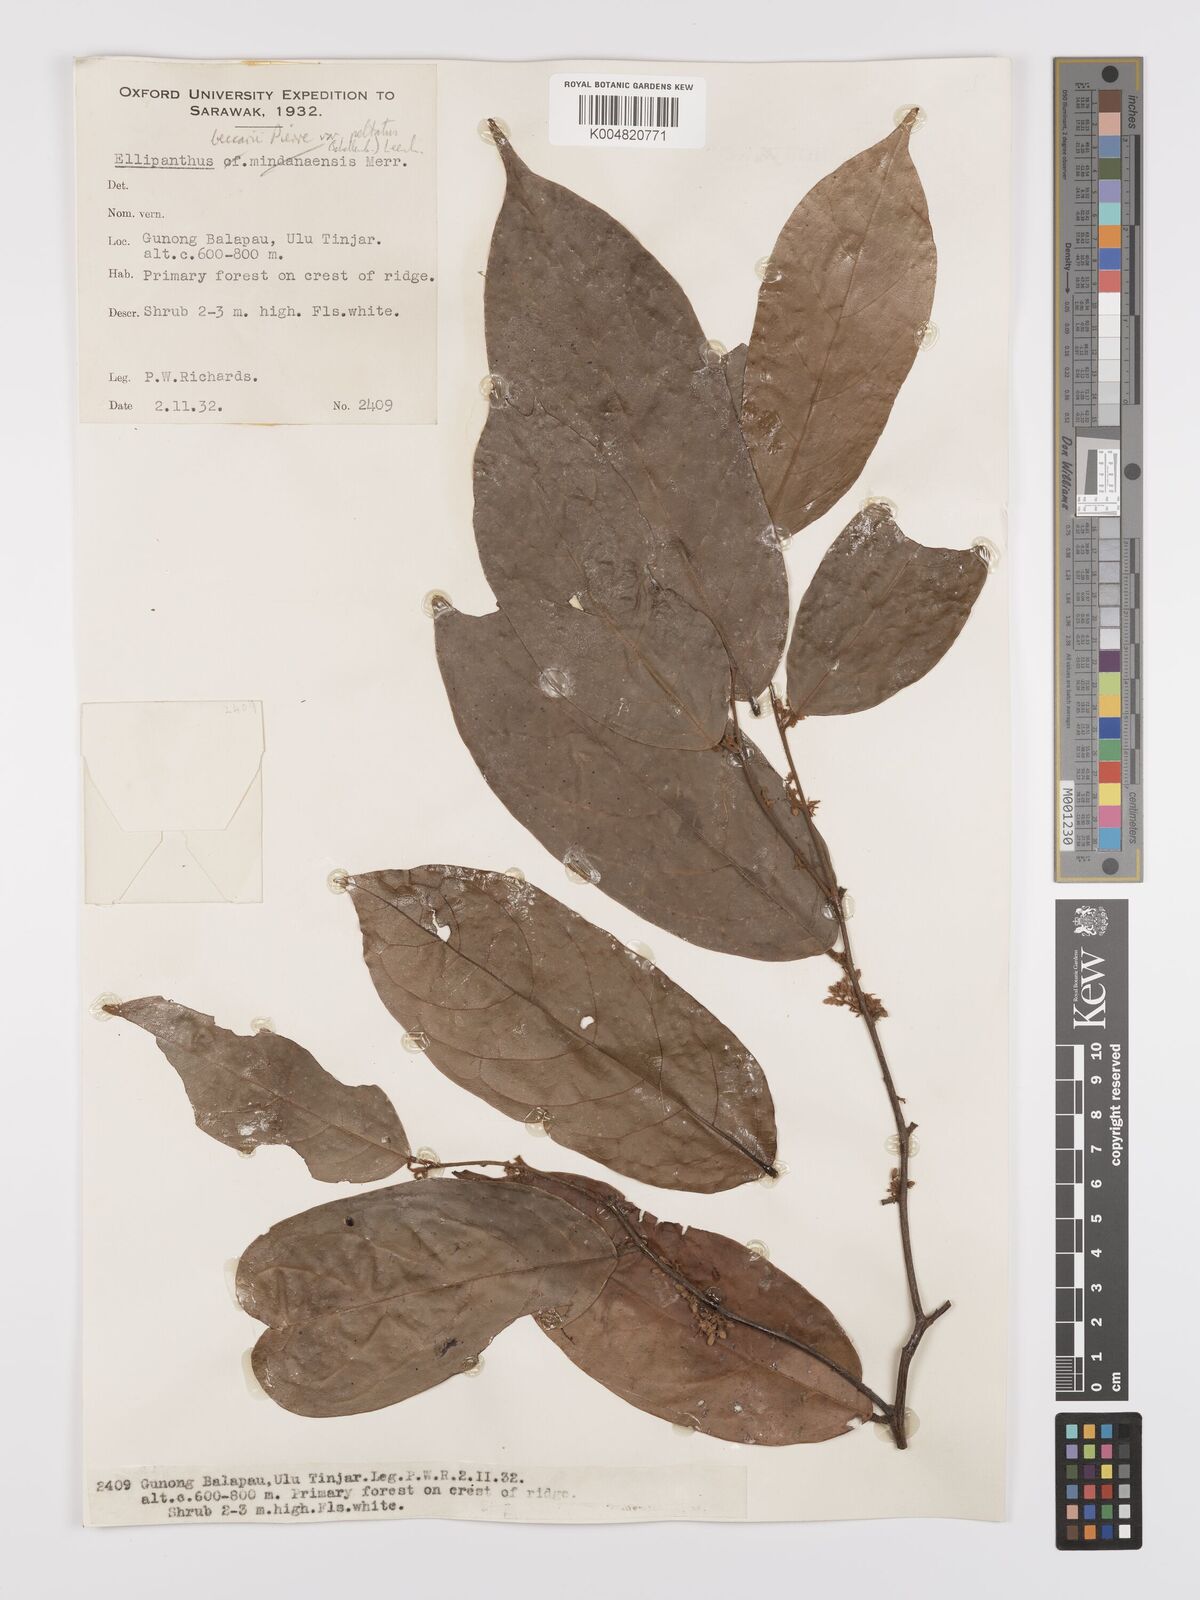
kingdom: Plantae
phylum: Tracheophyta
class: Magnoliopsida
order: Oxalidales
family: Connaraceae
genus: Ellipanthus
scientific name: Ellipanthus beccarii
